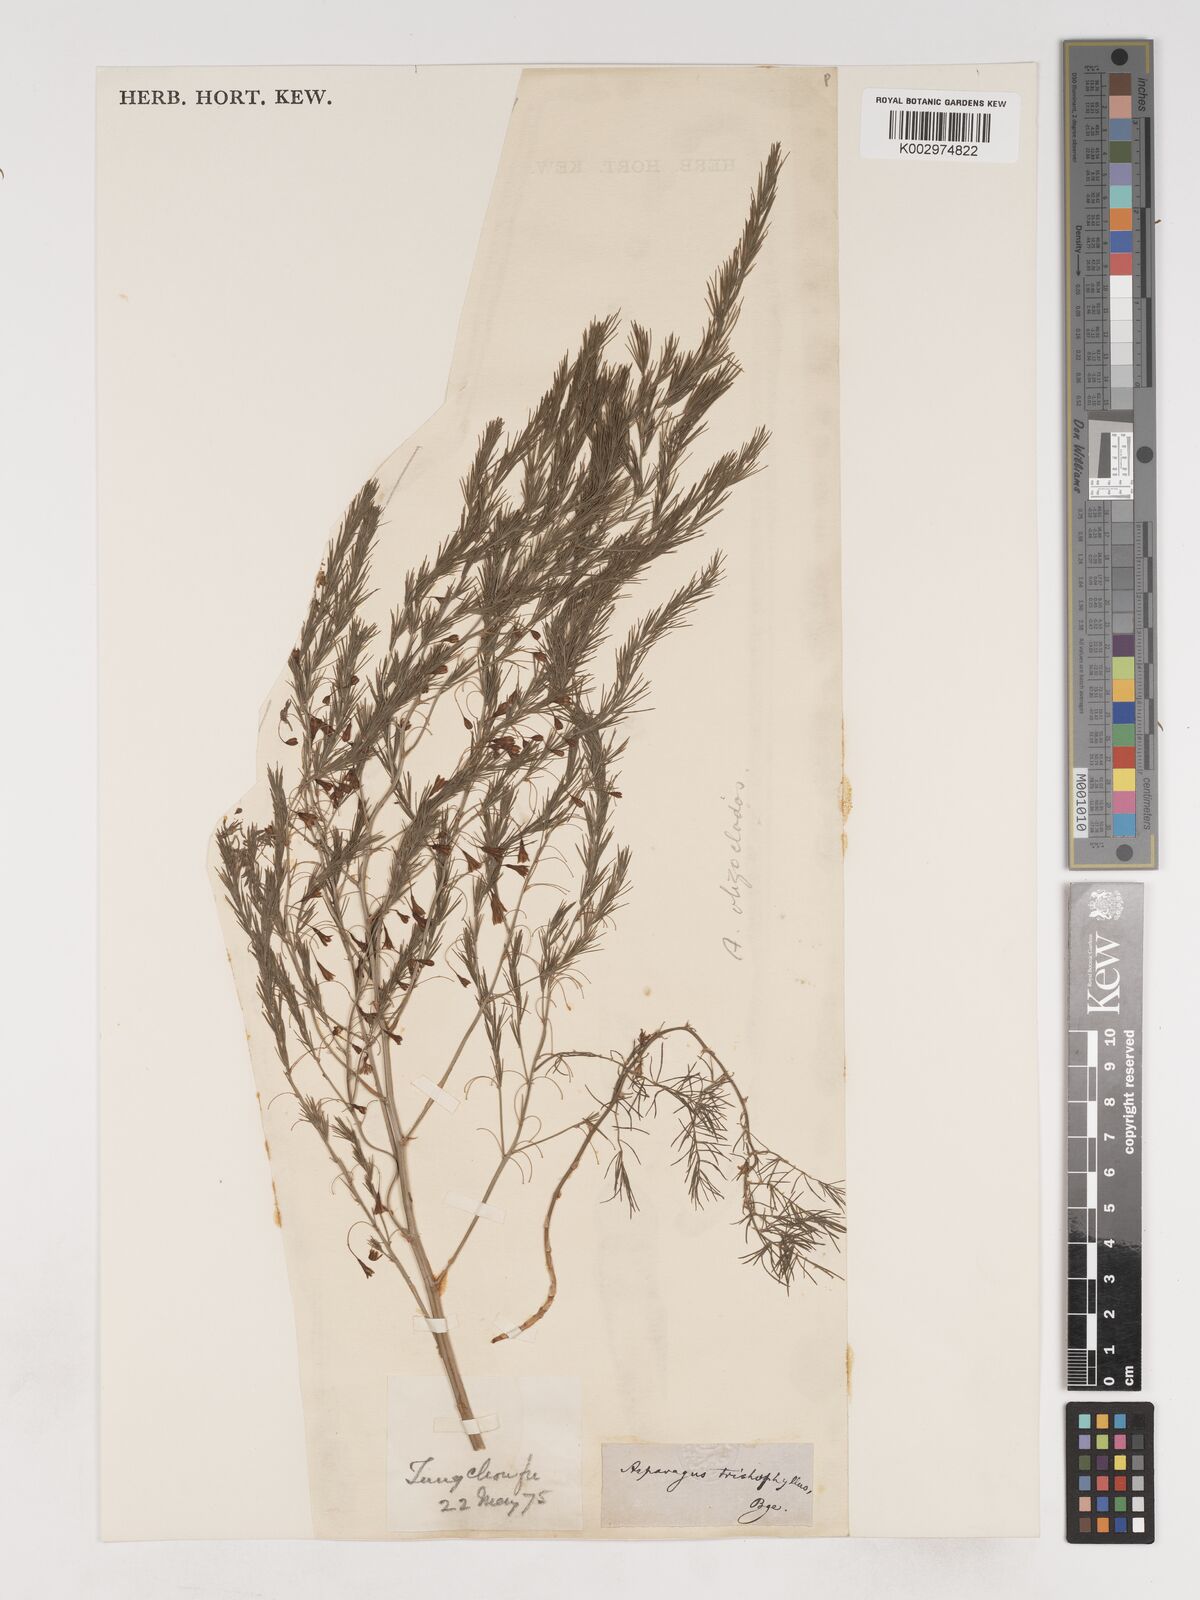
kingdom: Plantae
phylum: Tracheophyta
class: Liliopsida
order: Asparagales
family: Asparagaceae
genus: Asparagus
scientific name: Asparagus oligoclonos
